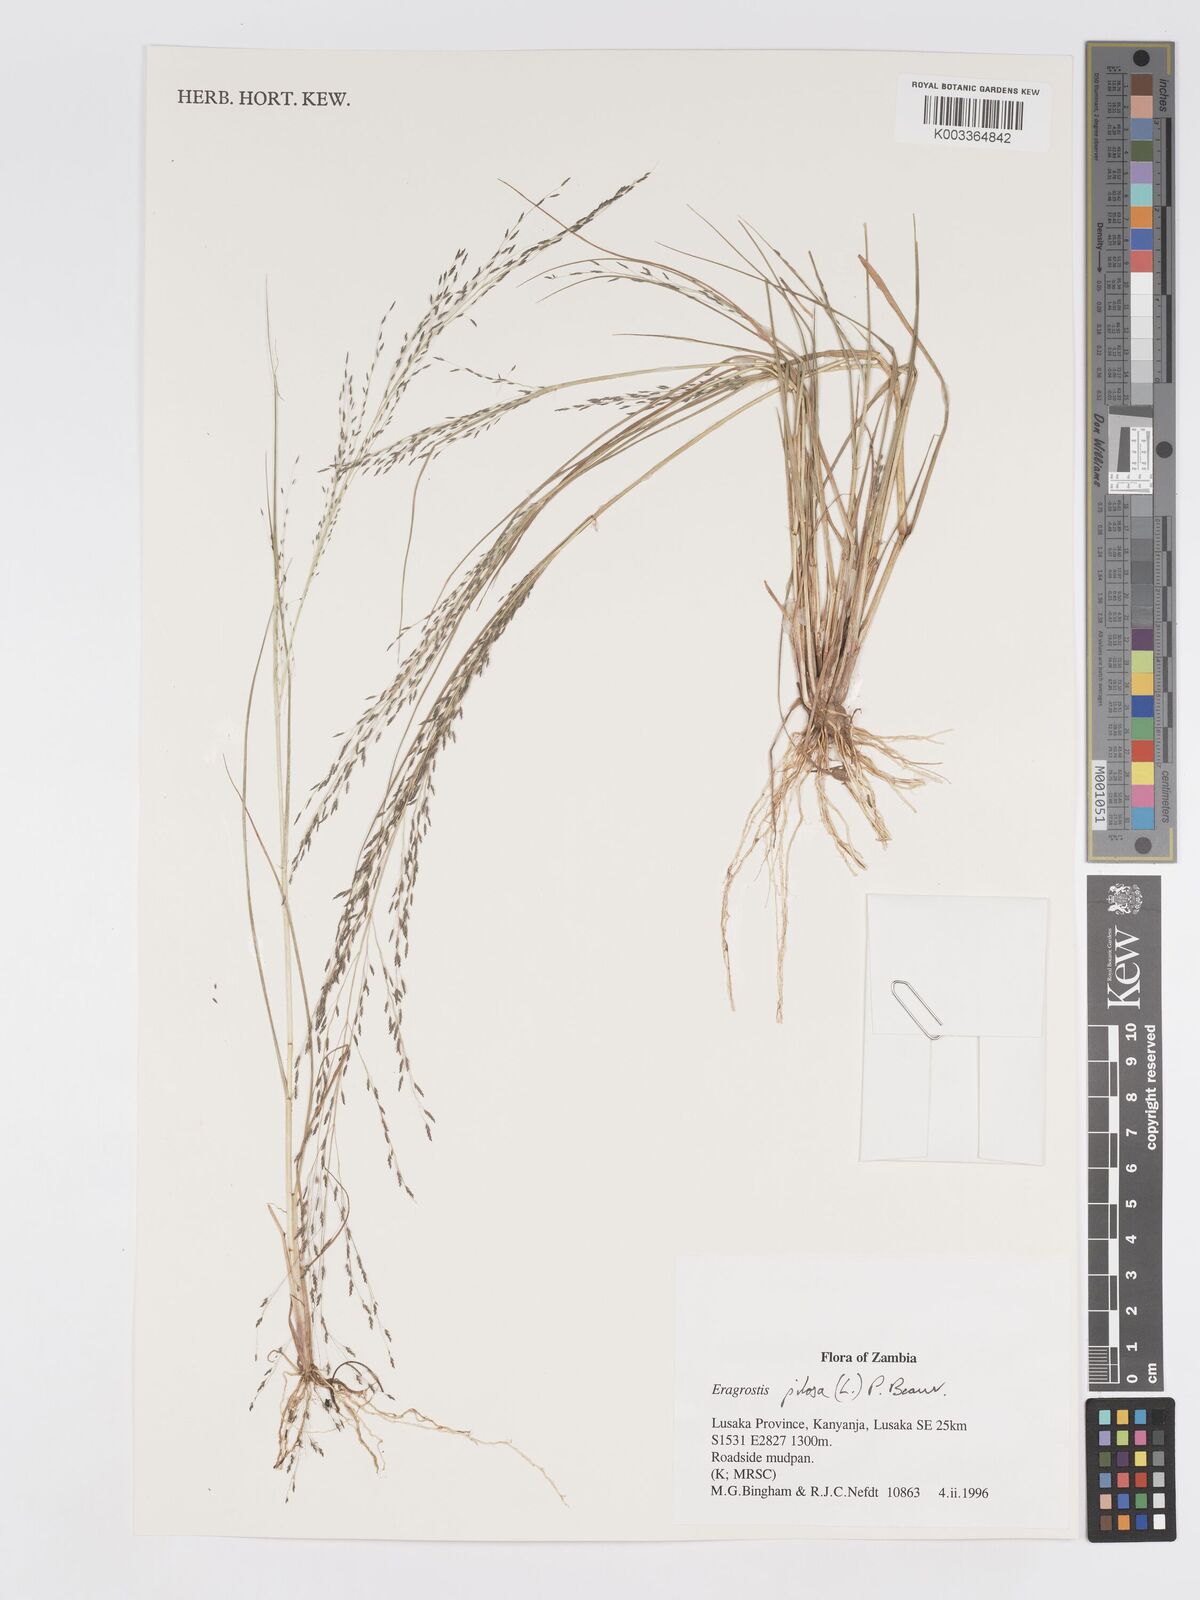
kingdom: Plantae
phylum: Tracheophyta
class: Liliopsida
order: Poales
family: Poaceae
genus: Eragrostis
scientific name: Eragrostis aethiopica
